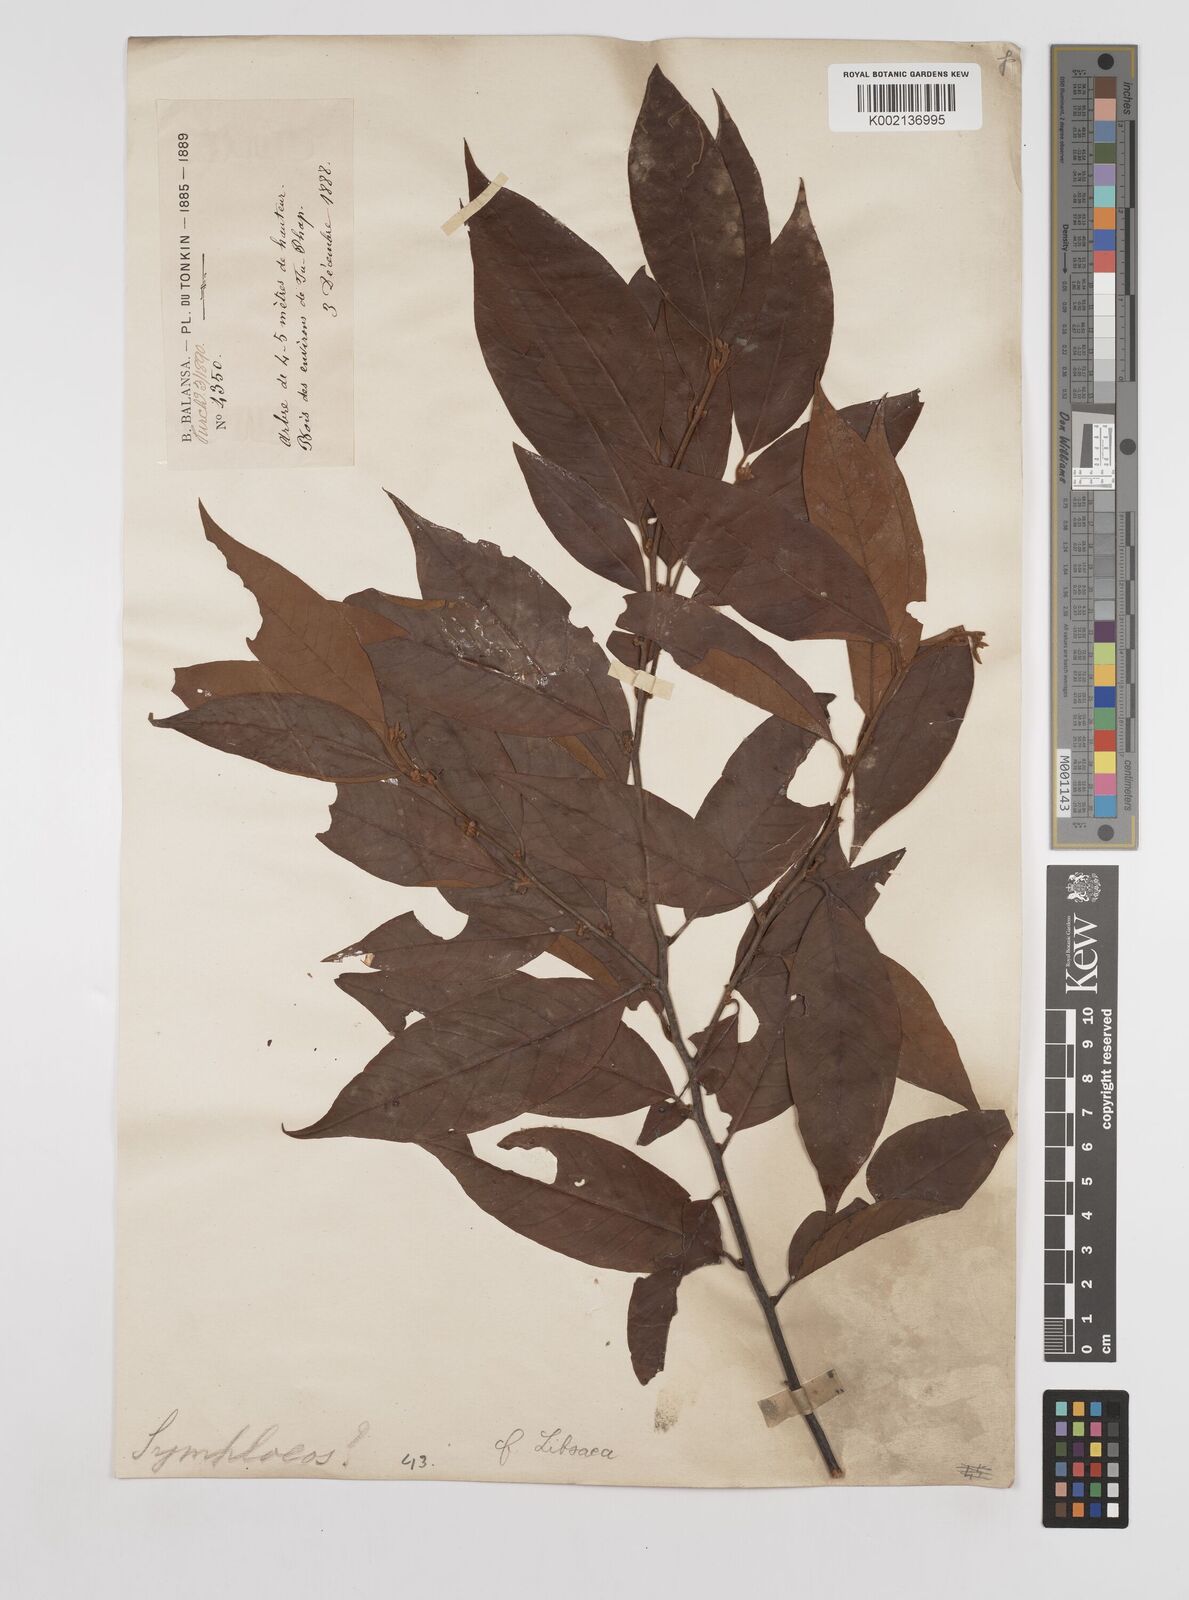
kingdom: Plantae
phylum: Tracheophyta
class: Magnoliopsida
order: Laurales
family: Lauraceae
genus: Litsea
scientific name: Litsea umbellata
